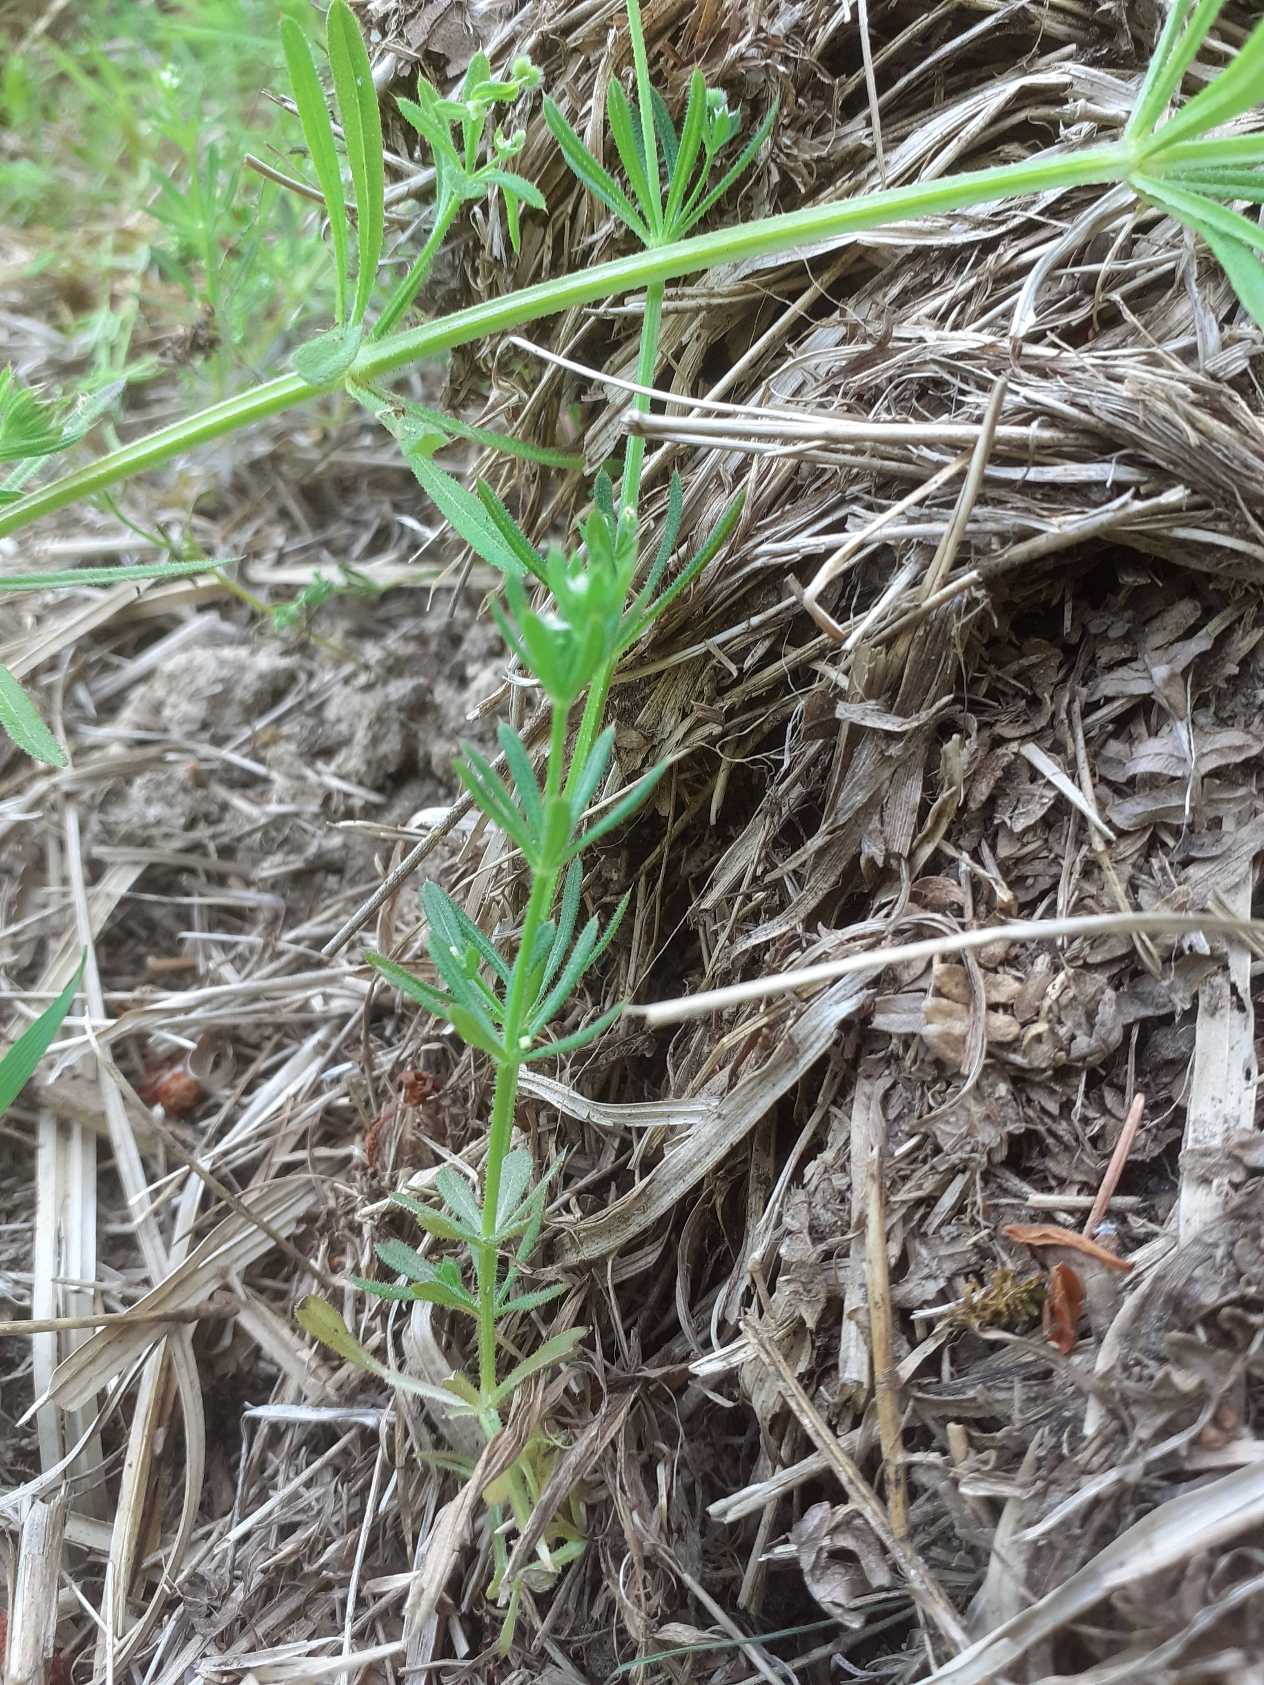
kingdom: Plantae
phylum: Tracheophyta
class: Magnoliopsida
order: Gentianales
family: Rubiaceae
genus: Galium
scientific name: Galium aparine
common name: Burre-snerre
